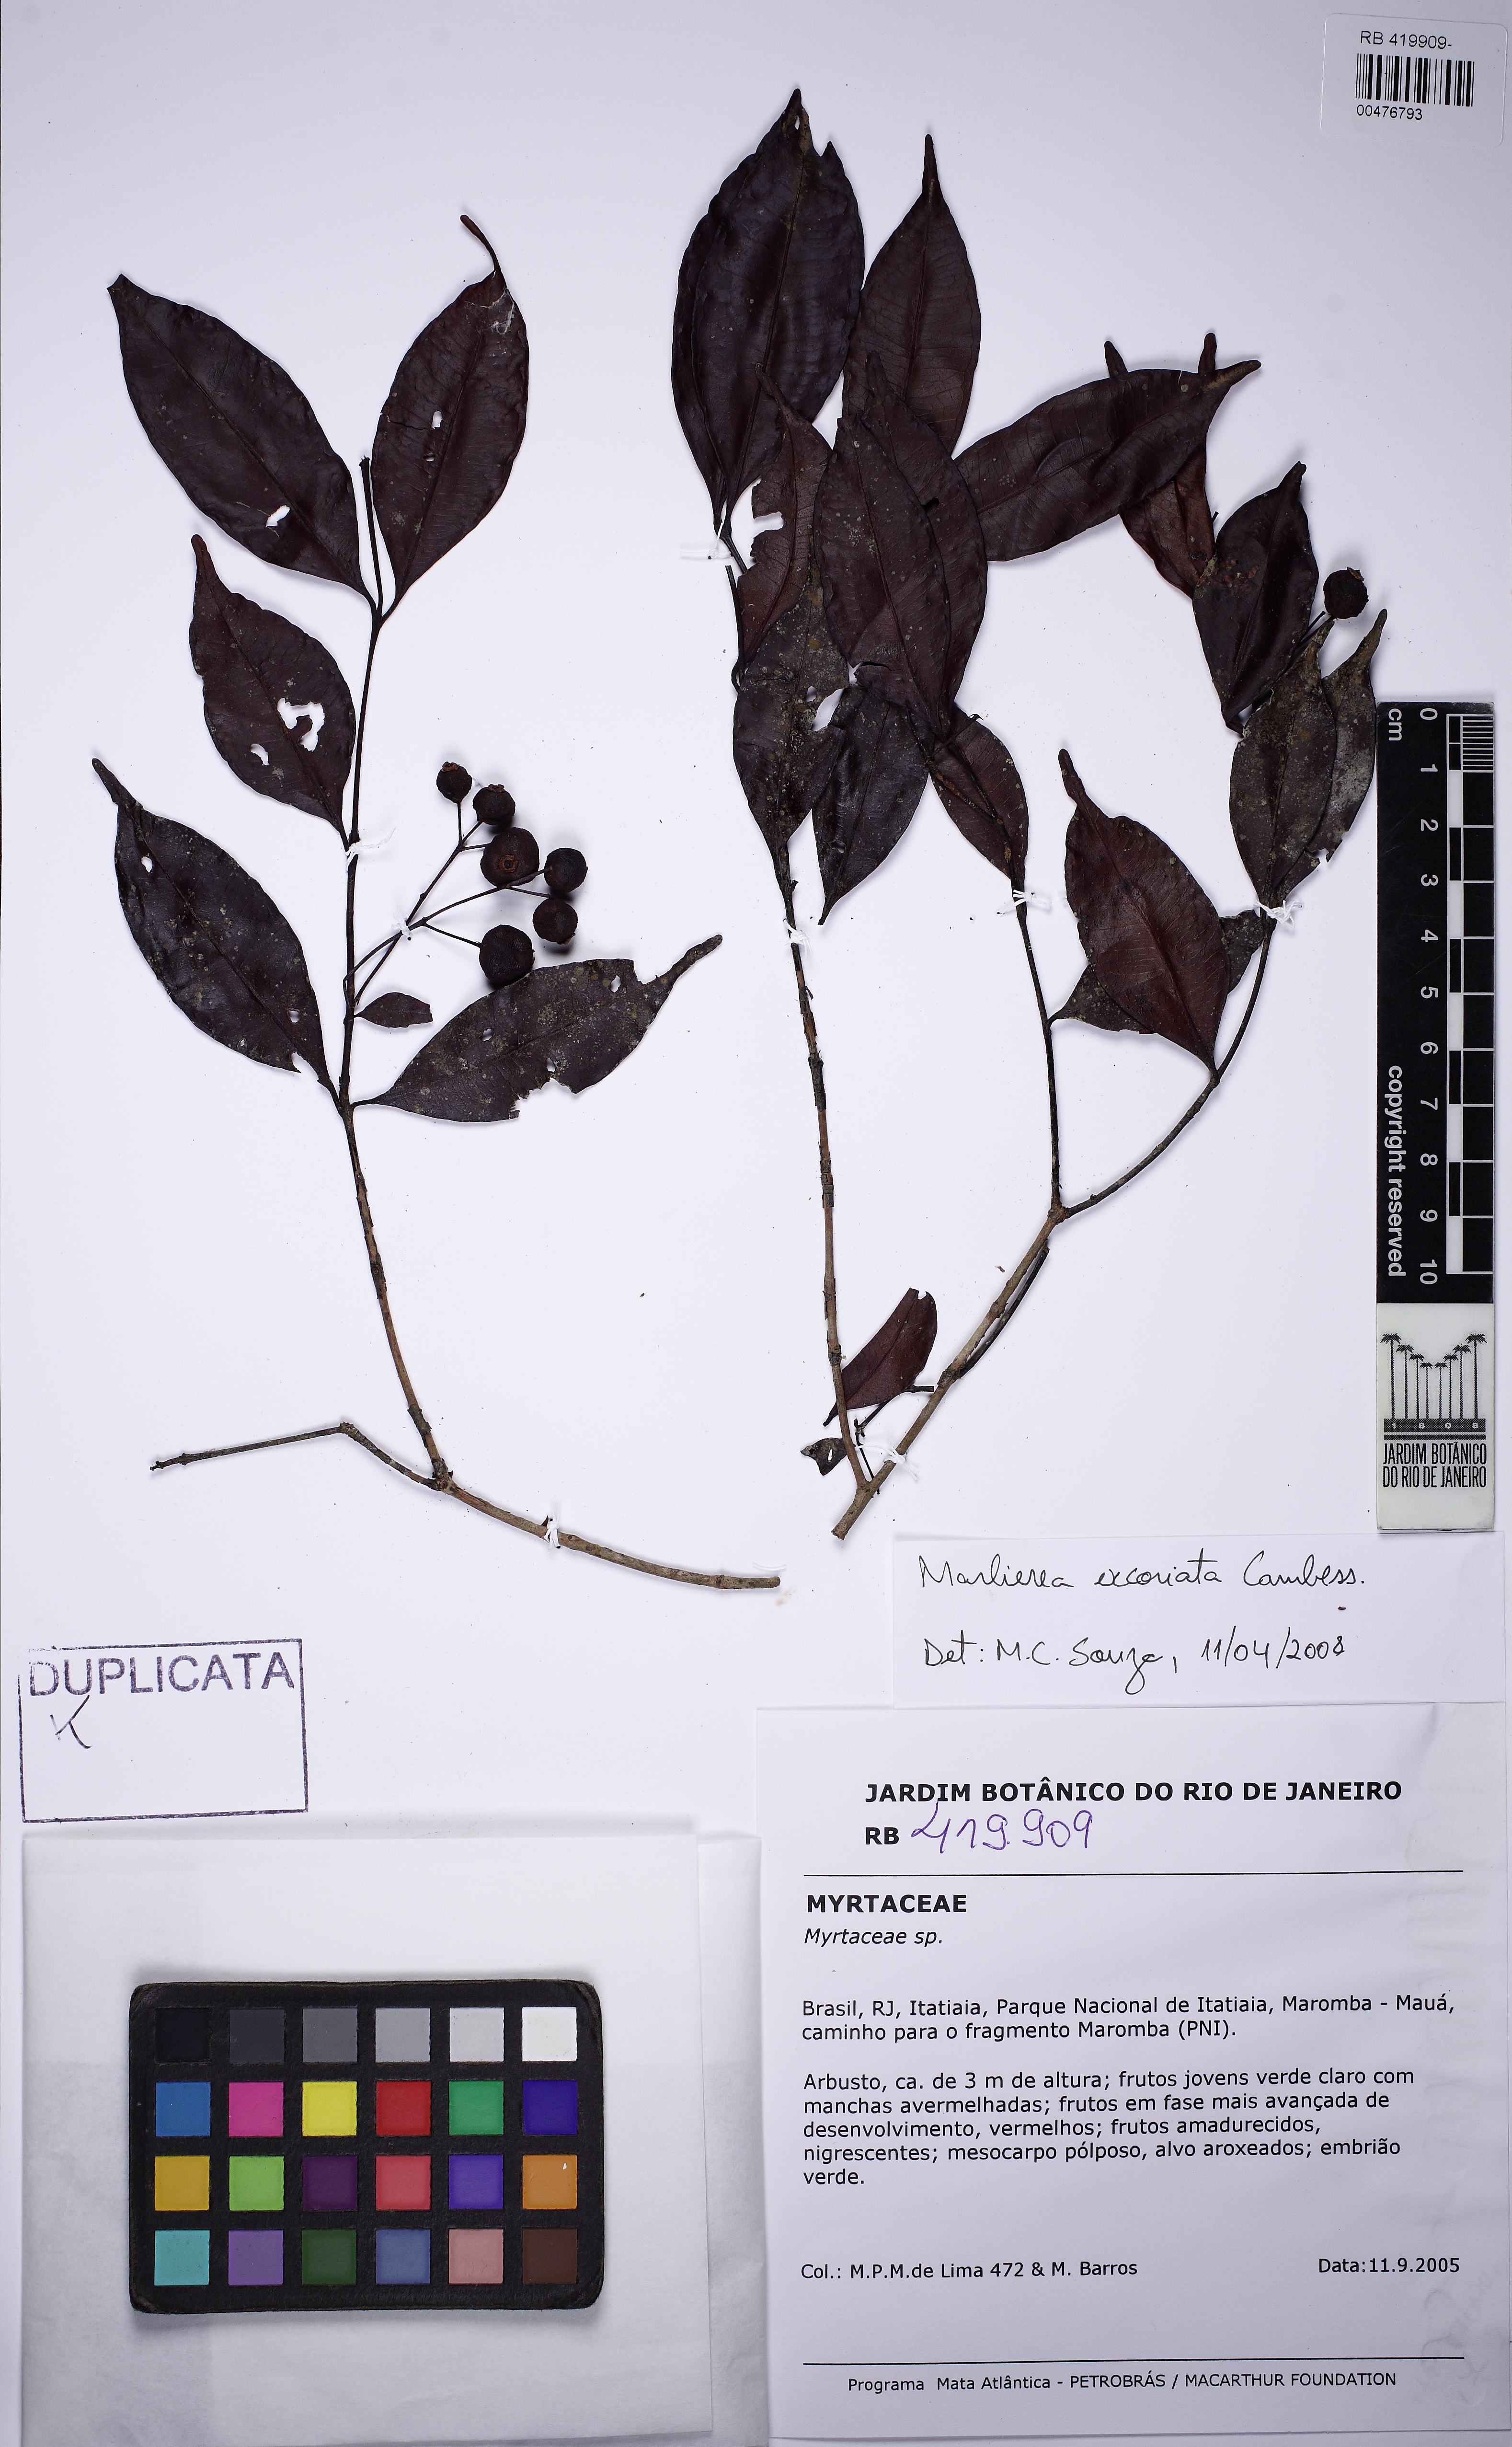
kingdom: Plantae
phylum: Tracheophyta
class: Magnoliopsida
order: Myrtales
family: Myrtaceae
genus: Myrcia
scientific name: Myrcia laxiflora
